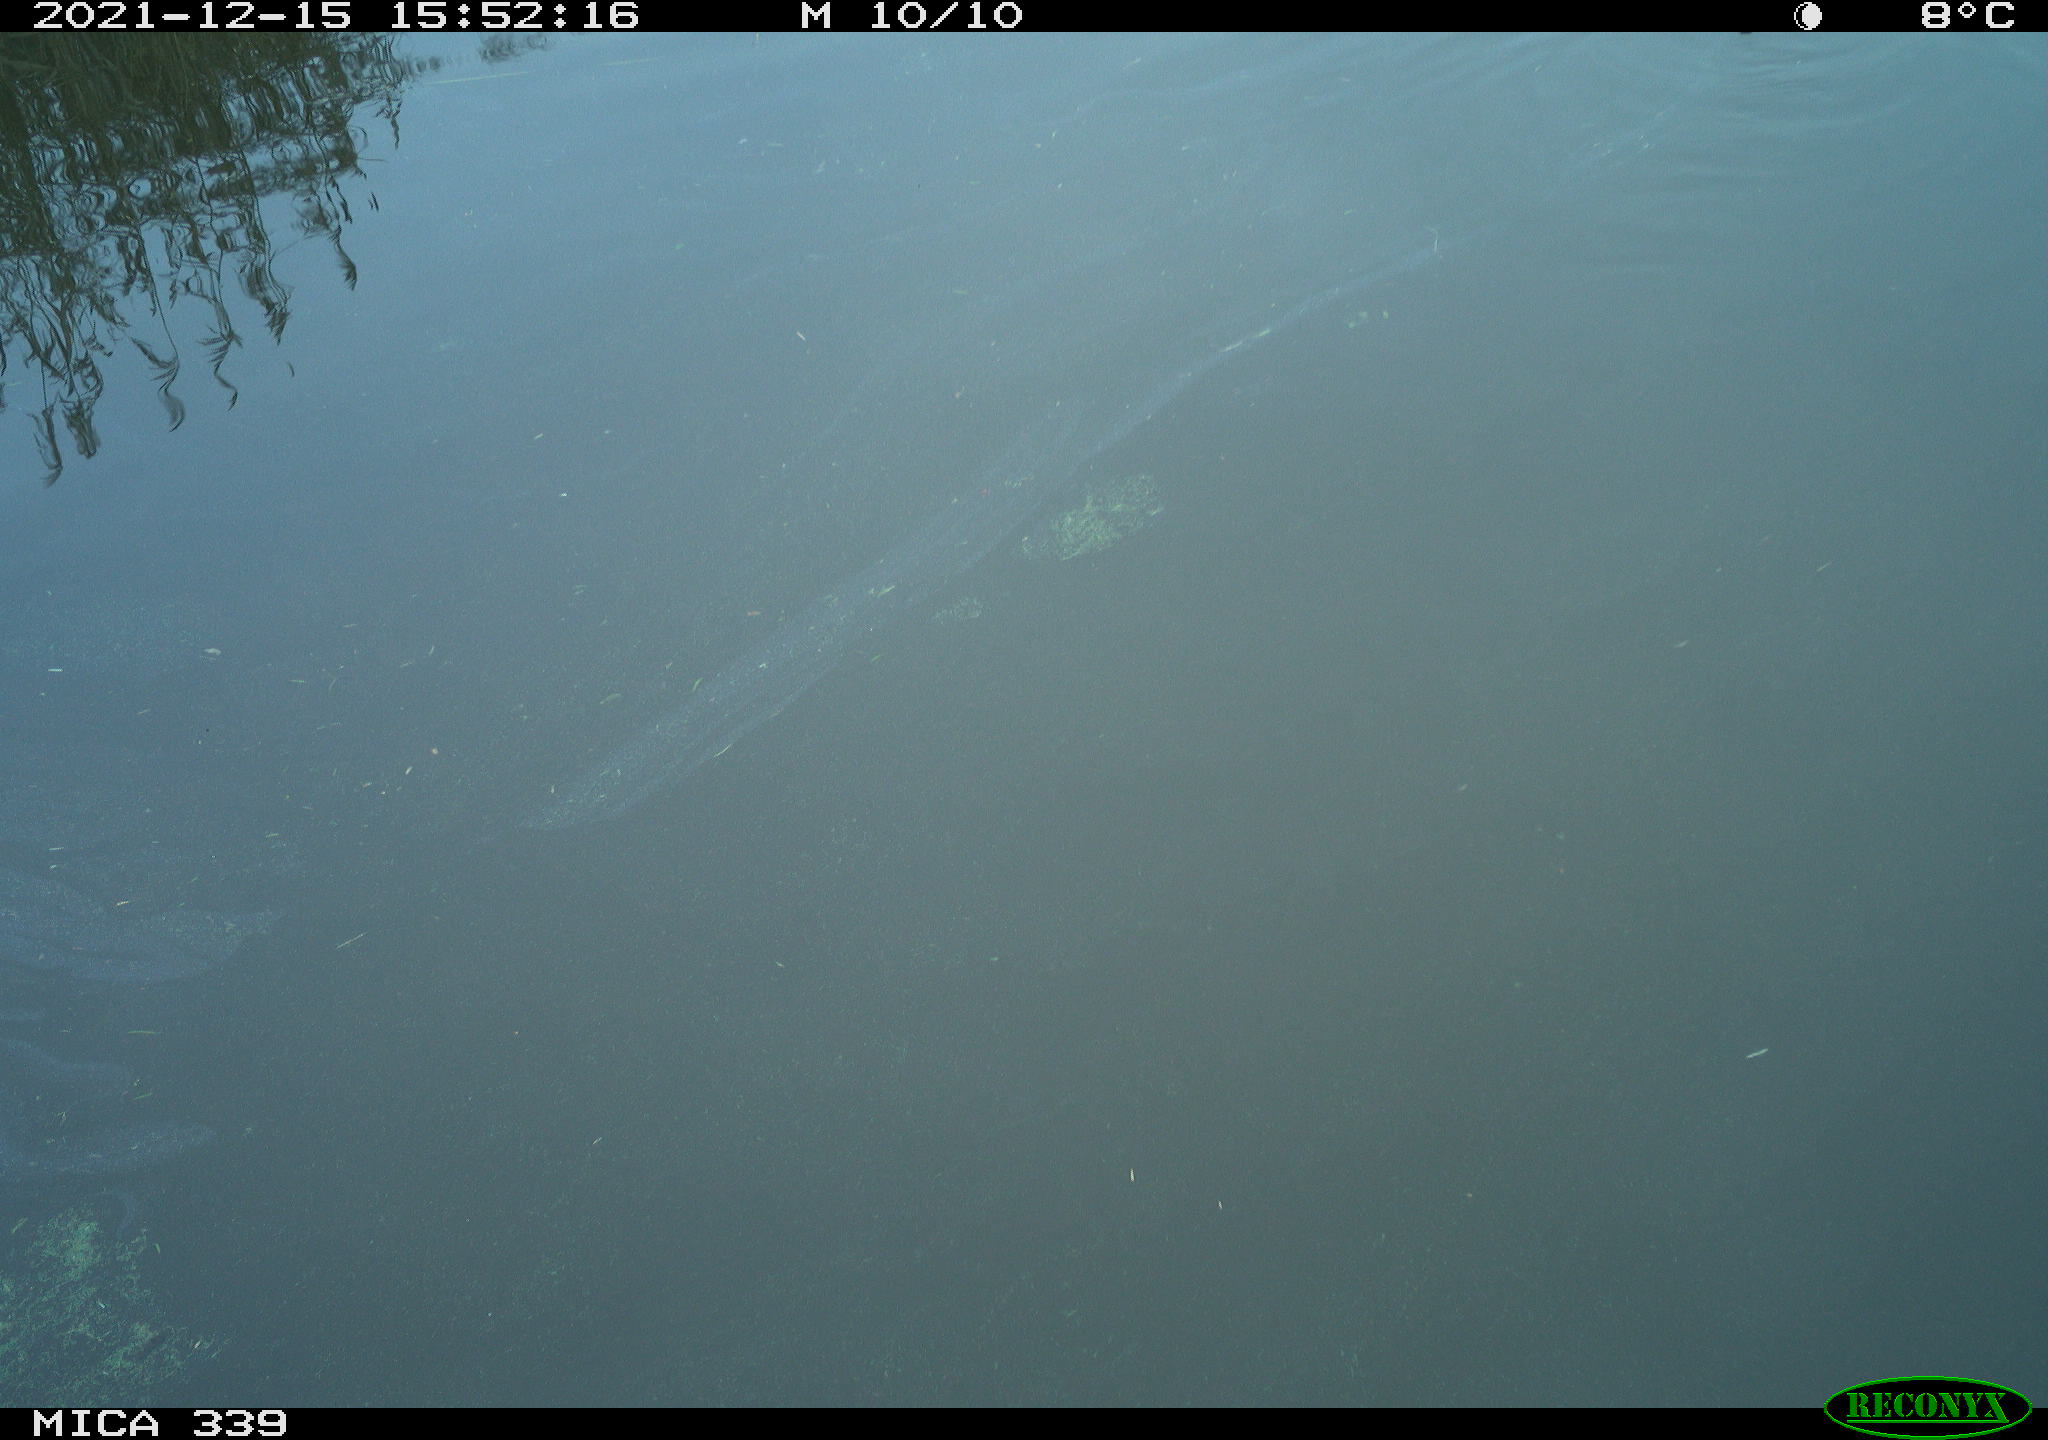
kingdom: Animalia
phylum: Chordata
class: Aves
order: Gruiformes
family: Rallidae
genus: Gallinula
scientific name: Gallinula chloropus
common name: Common moorhen
